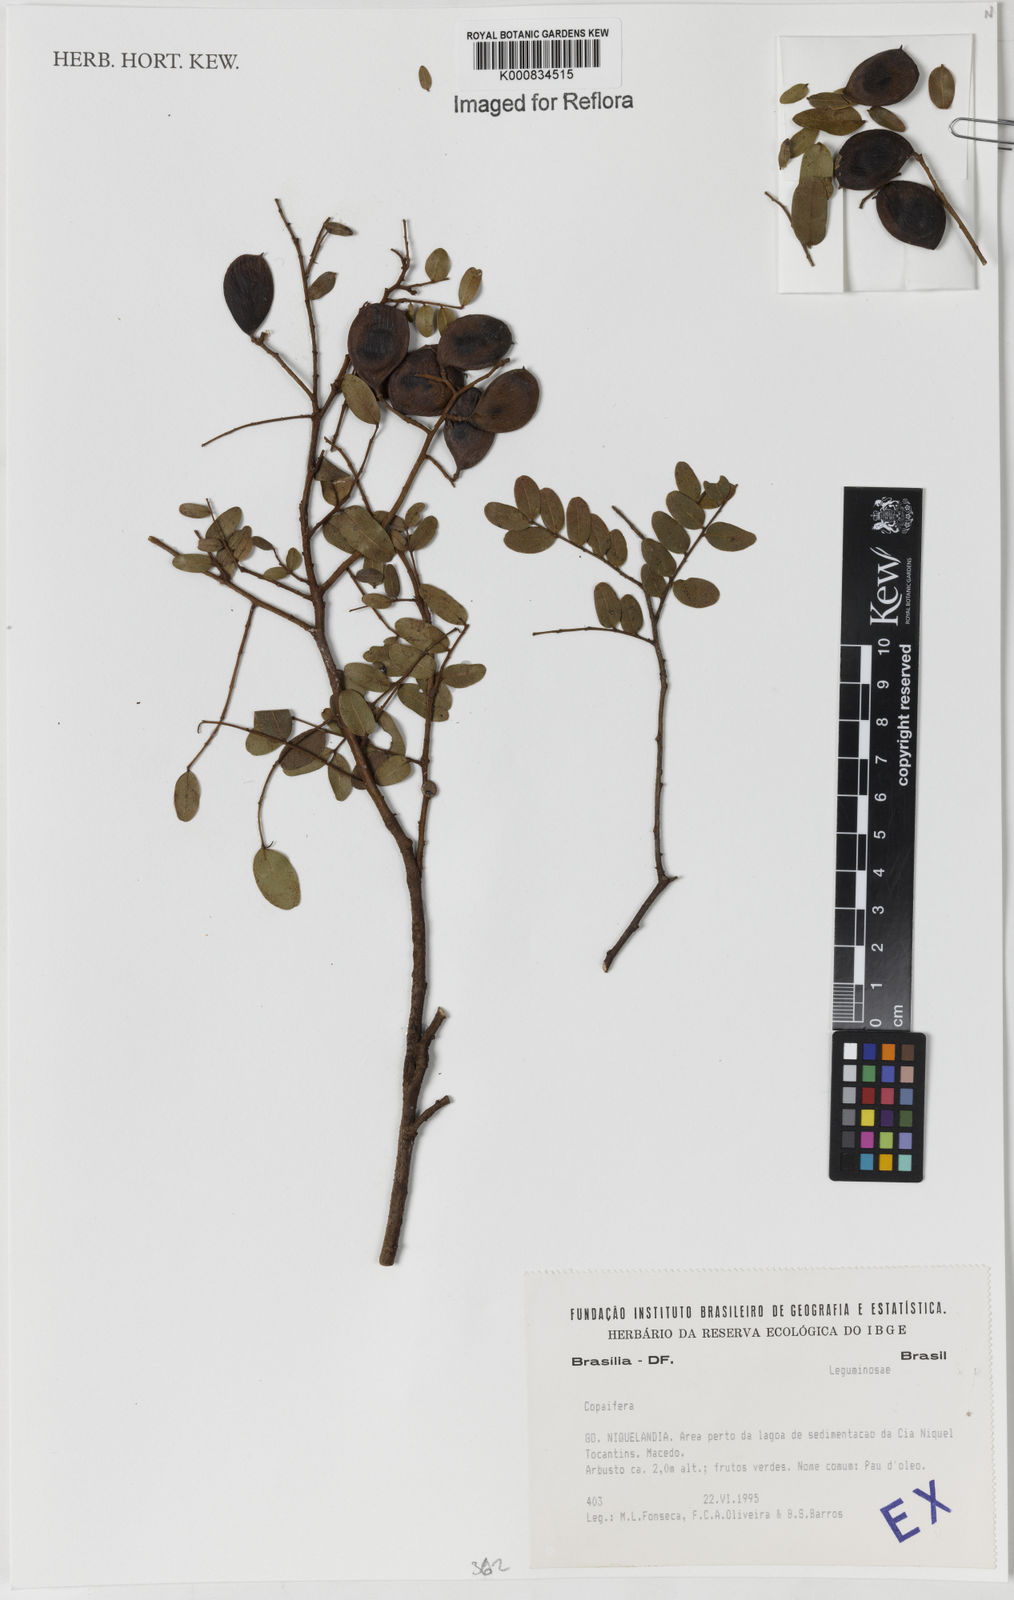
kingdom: Plantae
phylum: Tracheophyta
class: Magnoliopsida
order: Fabales
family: Fabaceae
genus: Copaifera
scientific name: Copaifera
